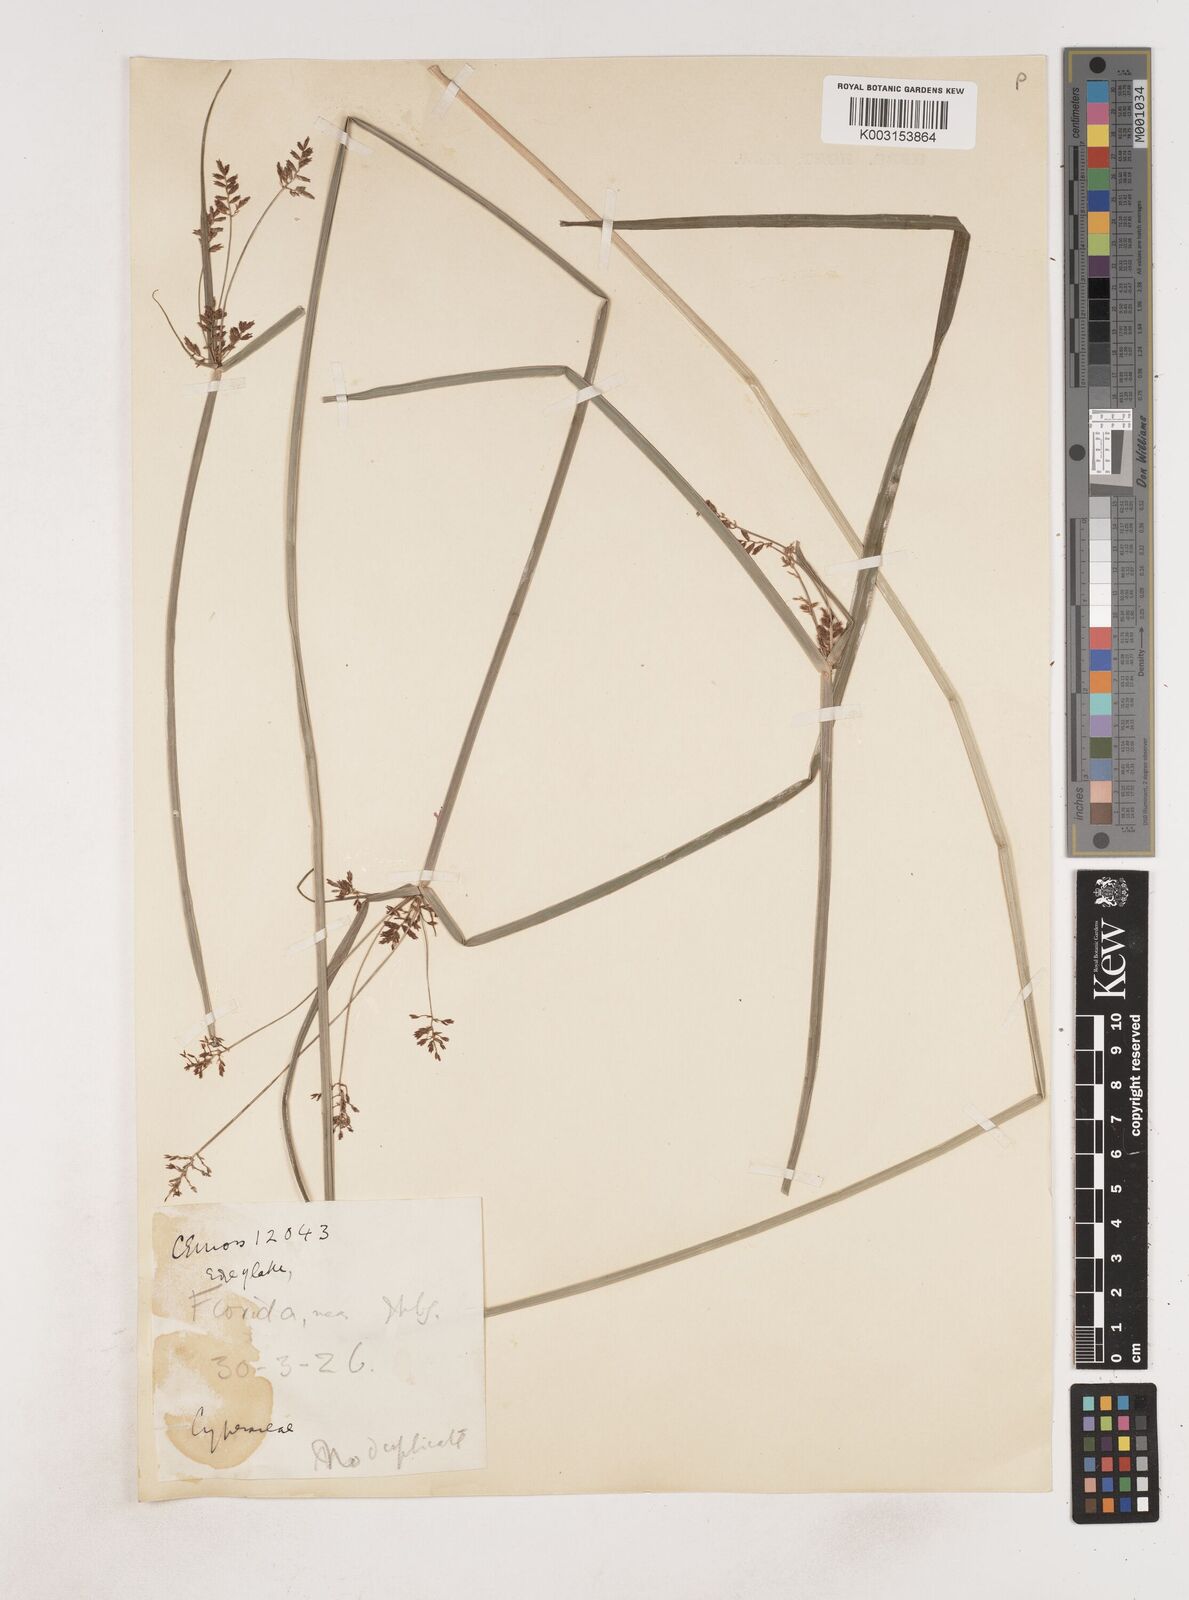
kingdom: Plantae
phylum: Tracheophyta
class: Liliopsida
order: Poales
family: Cyperaceae
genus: Cyperus
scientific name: Cyperus
